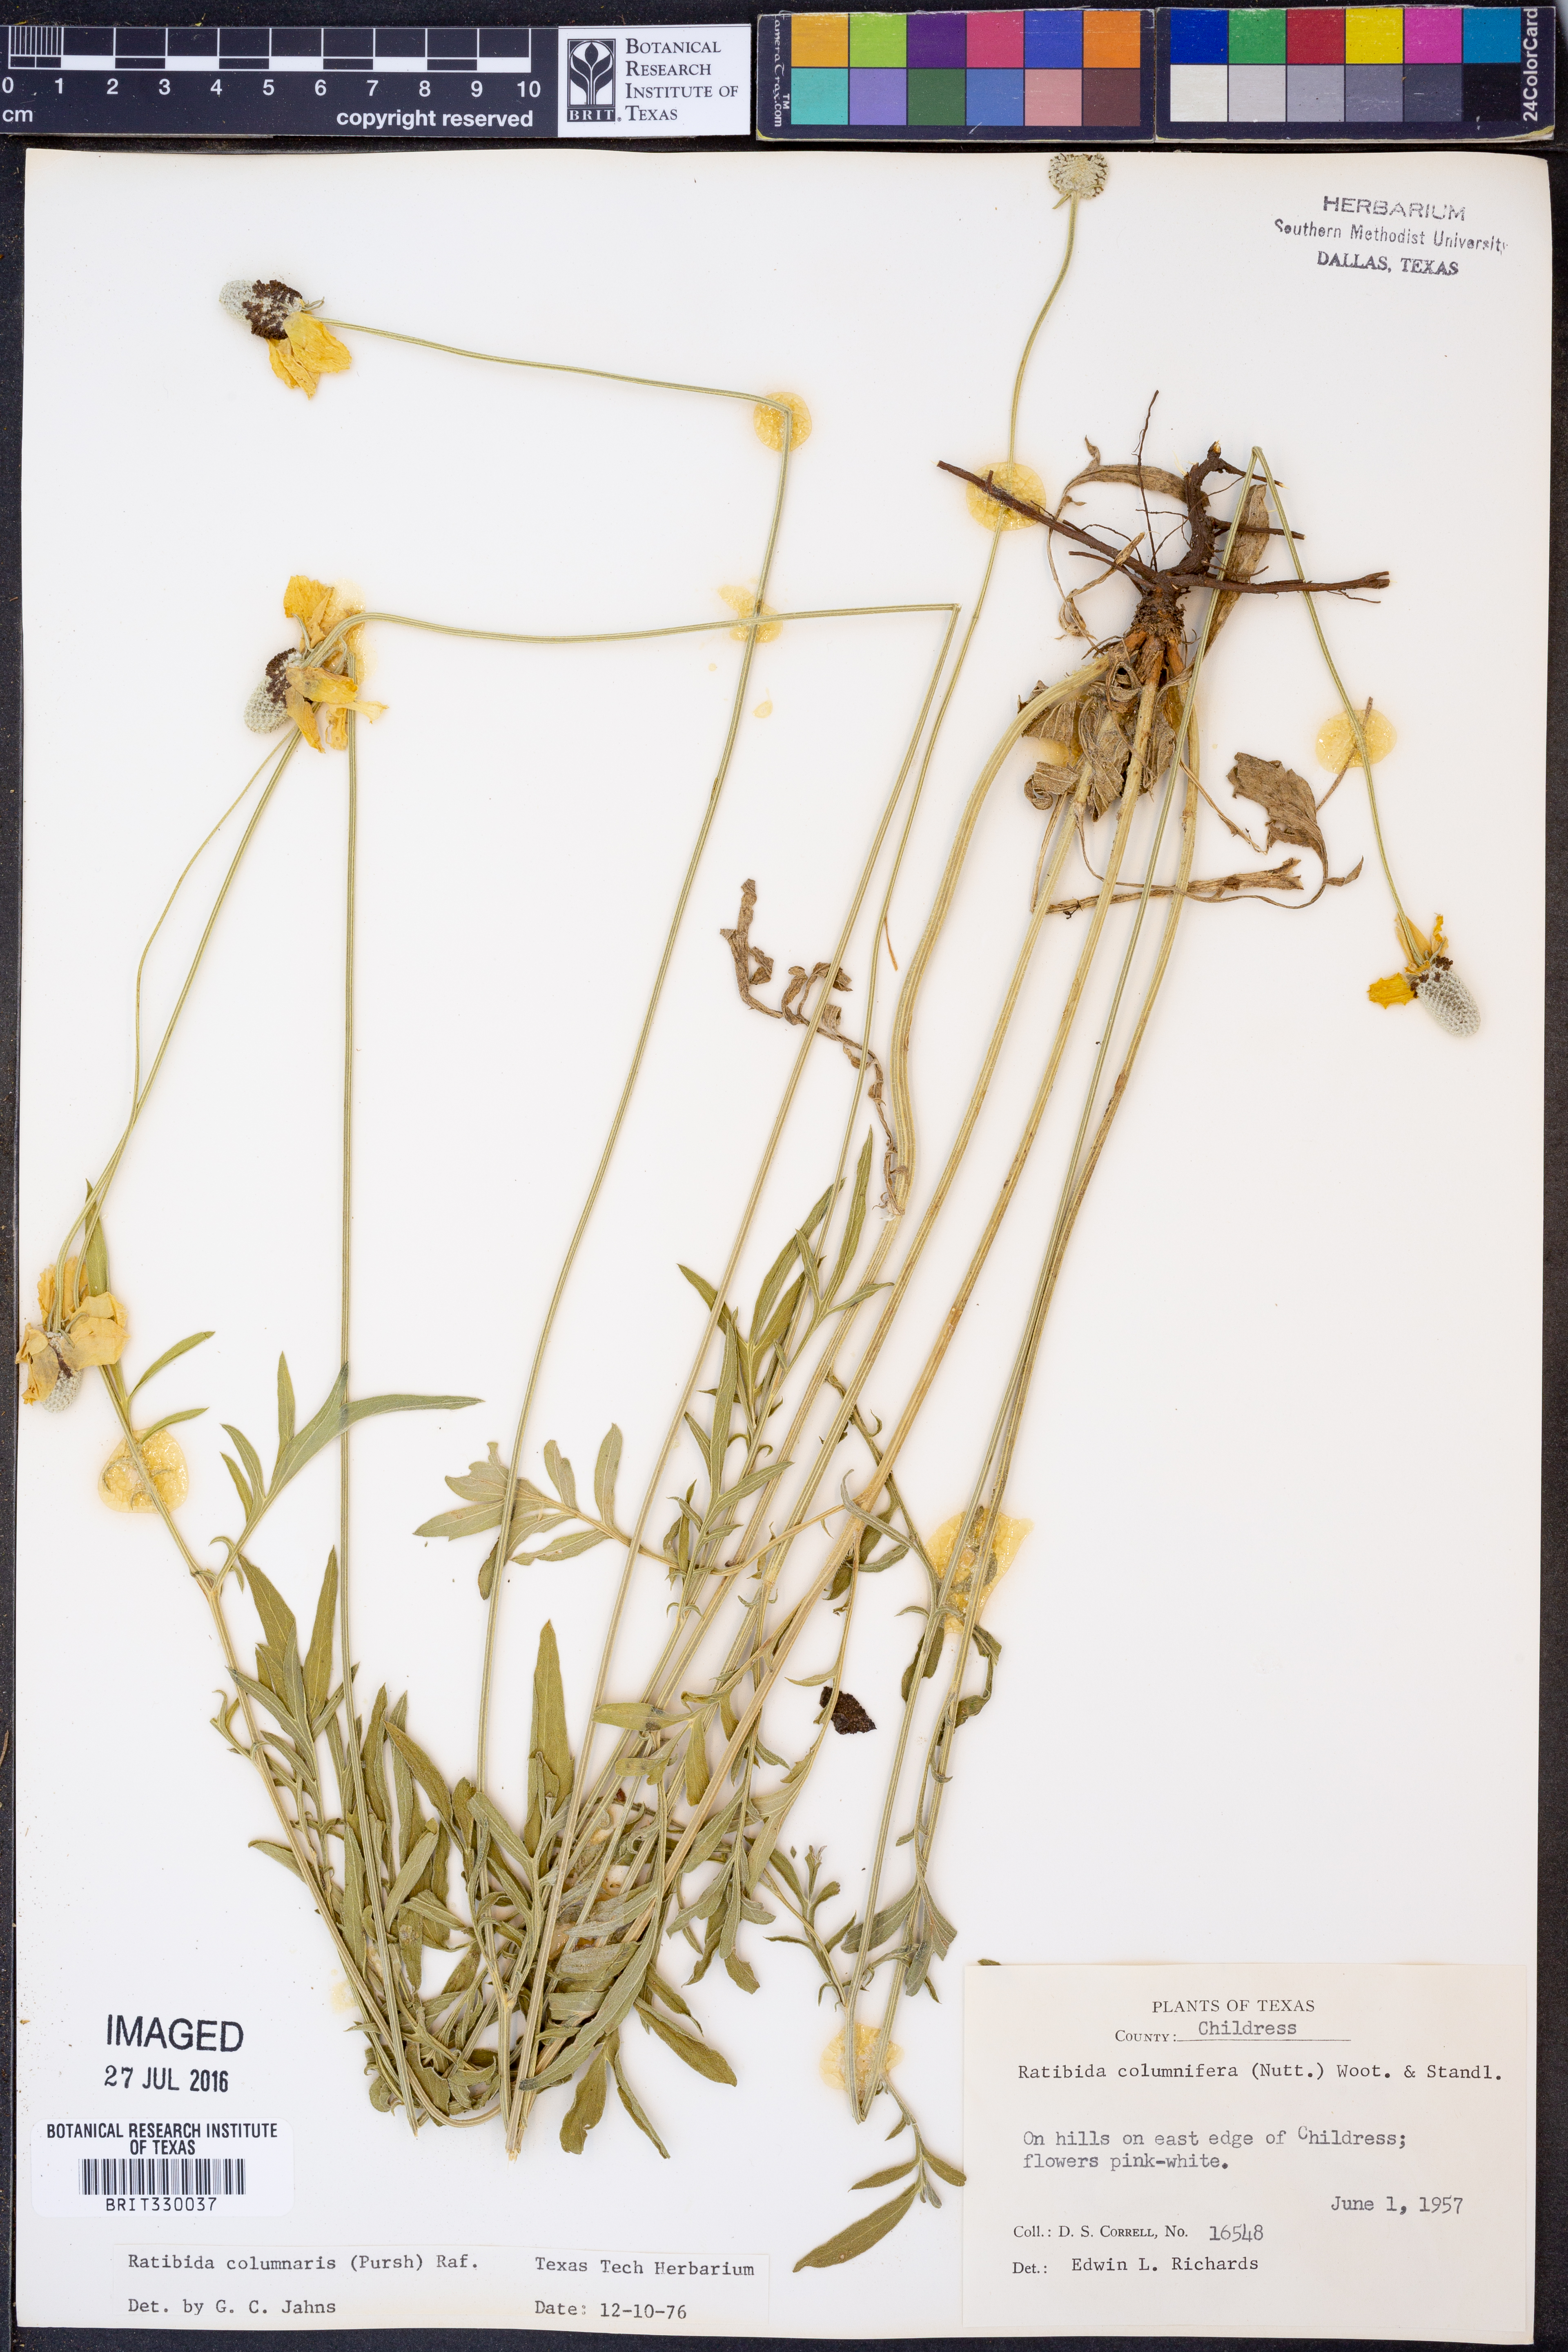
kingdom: Plantae
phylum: Tracheophyta
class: Magnoliopsida
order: Asterales
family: Asteraceae
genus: Ratibida
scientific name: Ratibida columnifera
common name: Prairie coneflower
